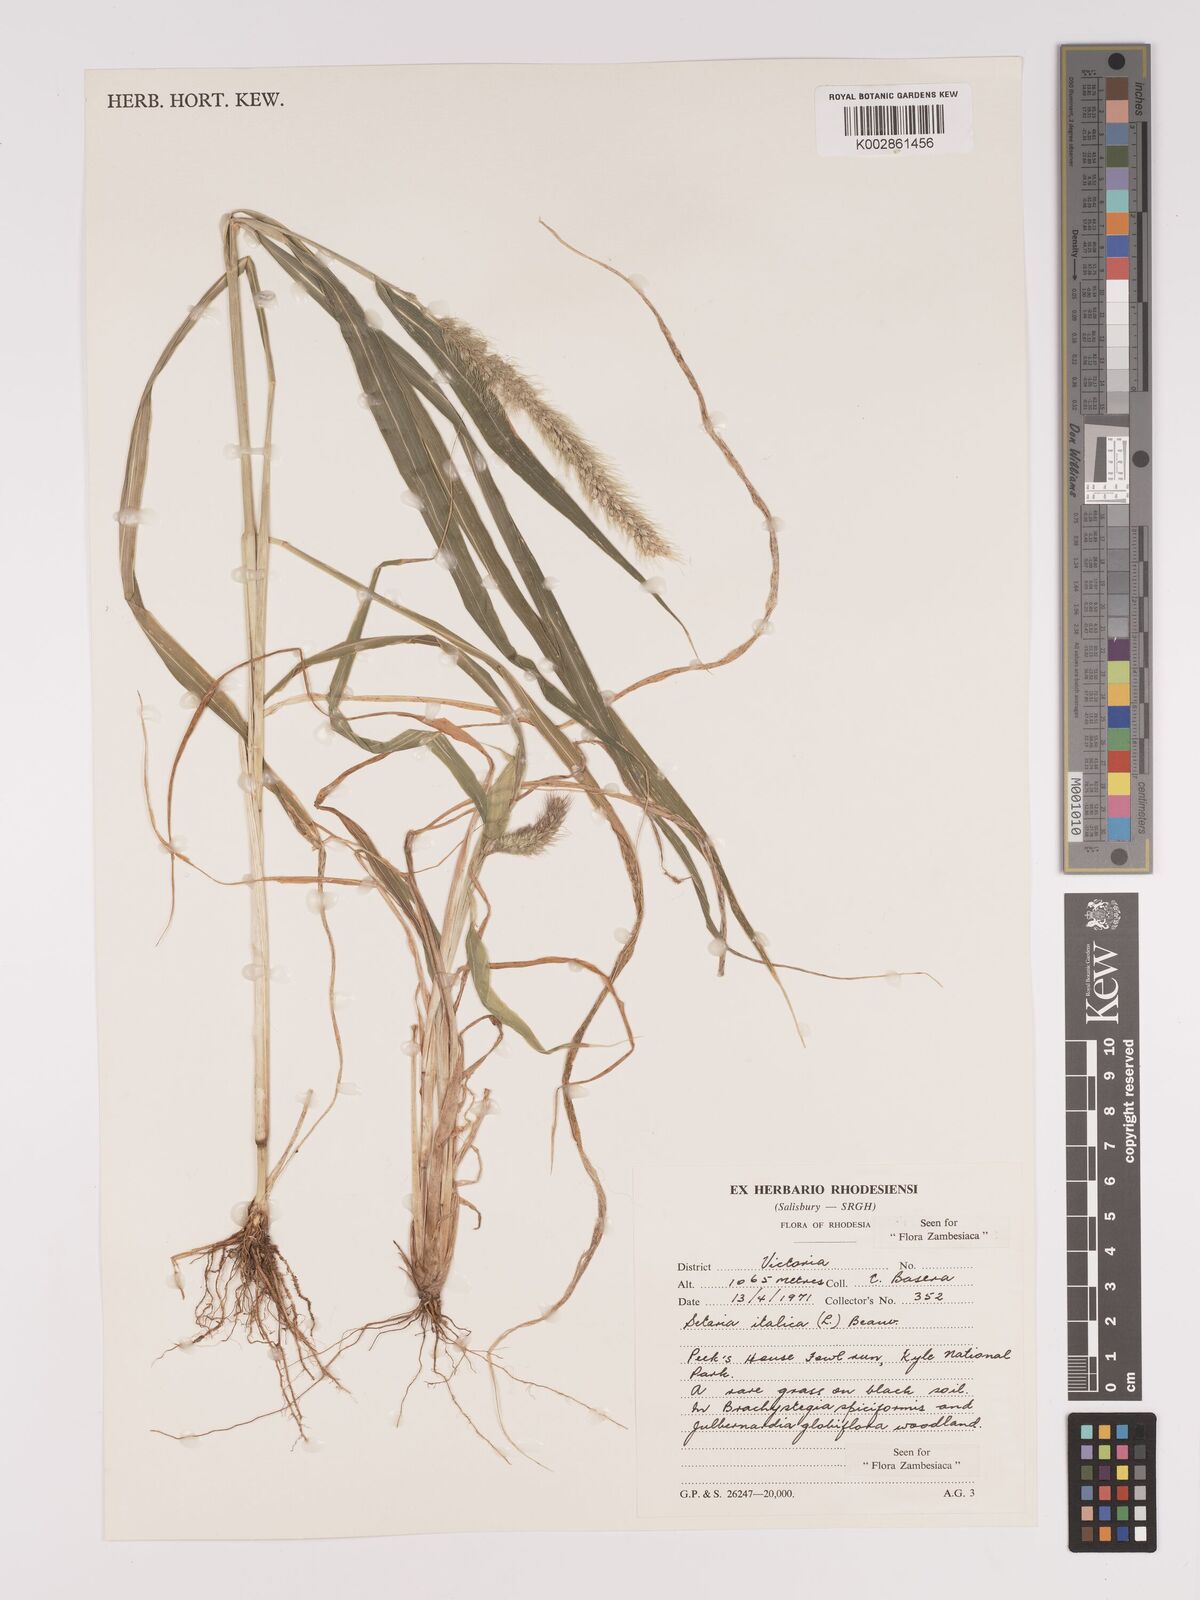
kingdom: Plantae
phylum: Tracheophyta
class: Liliopsida
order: Poales
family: Poaceae
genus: Setaria
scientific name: Setaria italica
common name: Foxtail bristle-grass
